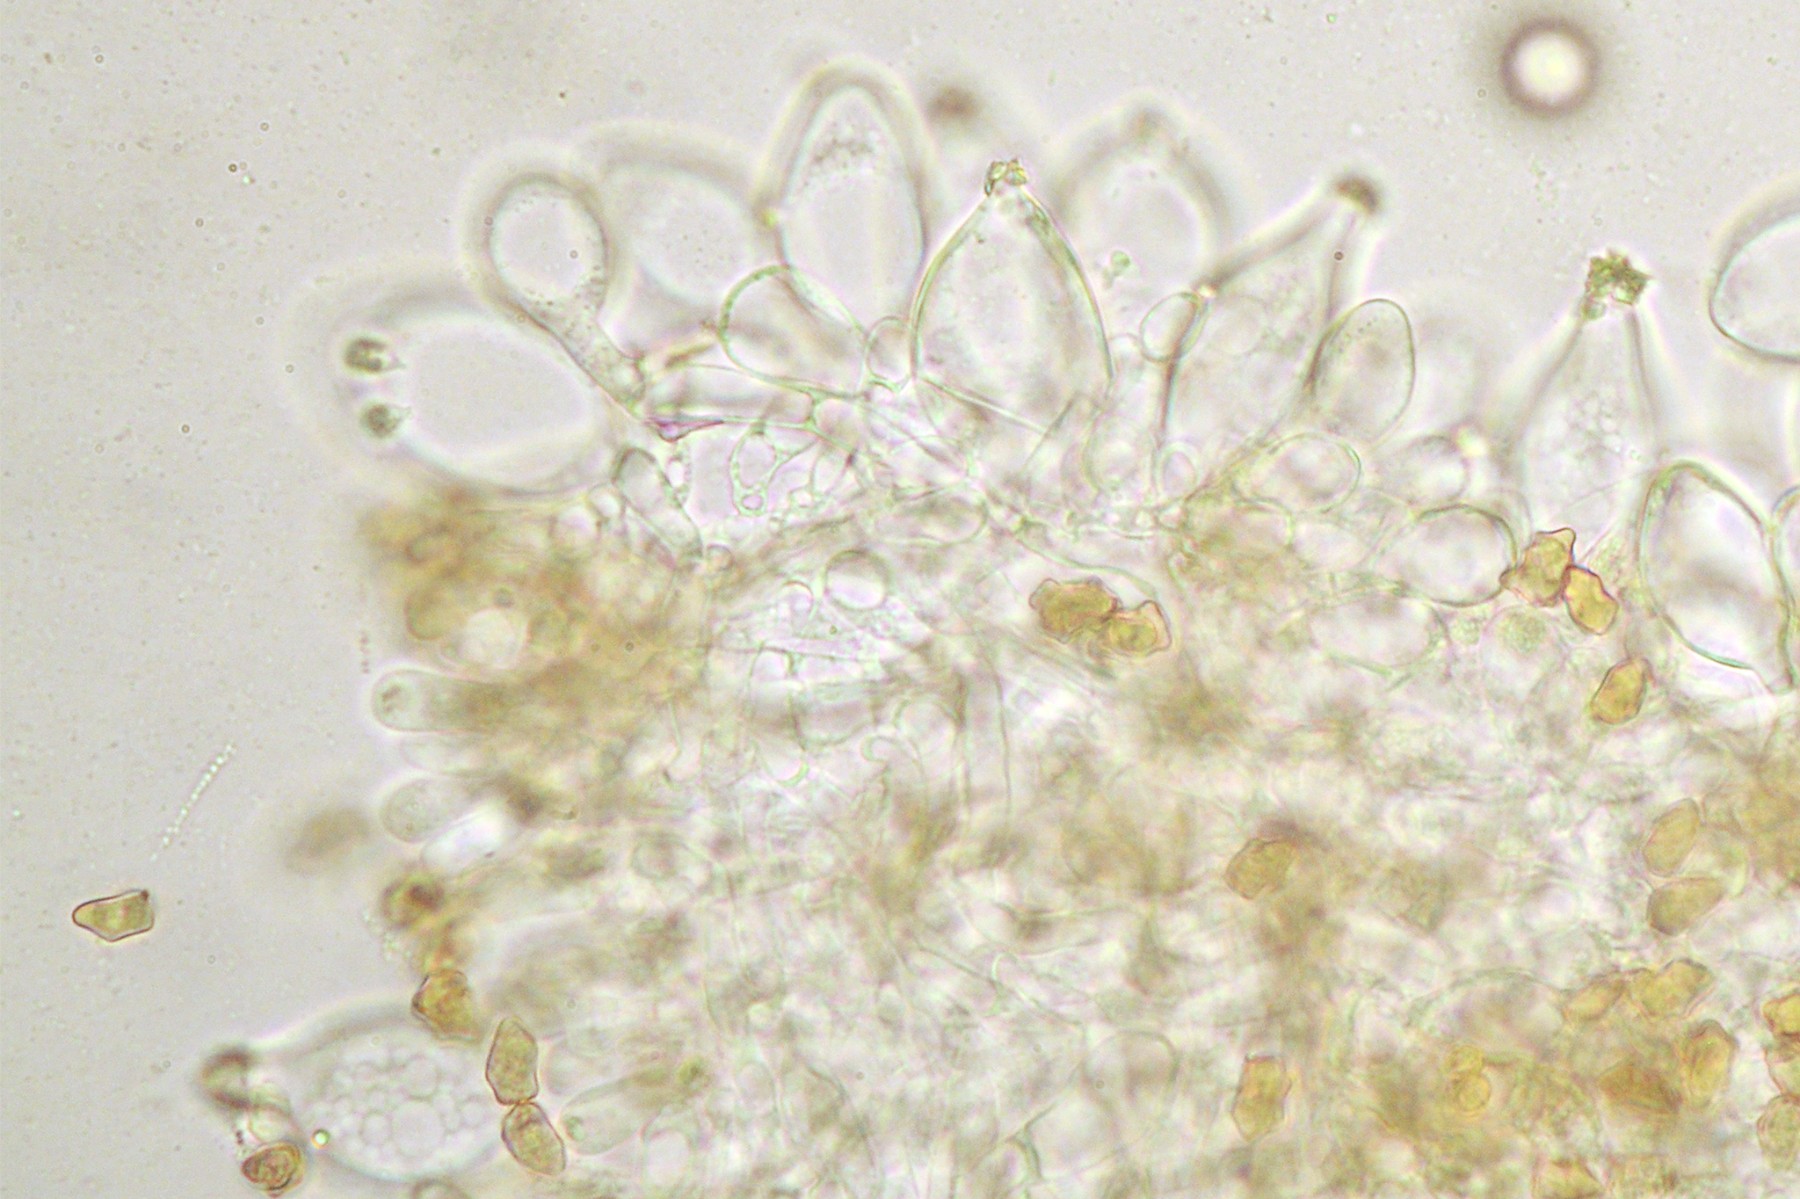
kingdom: Fungi
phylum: Basidiomycota
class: Agaricomycetes
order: Agaricales
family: Inocybaceae
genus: Inocybe
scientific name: Inocybe curvipes
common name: plæne-trævlhat
